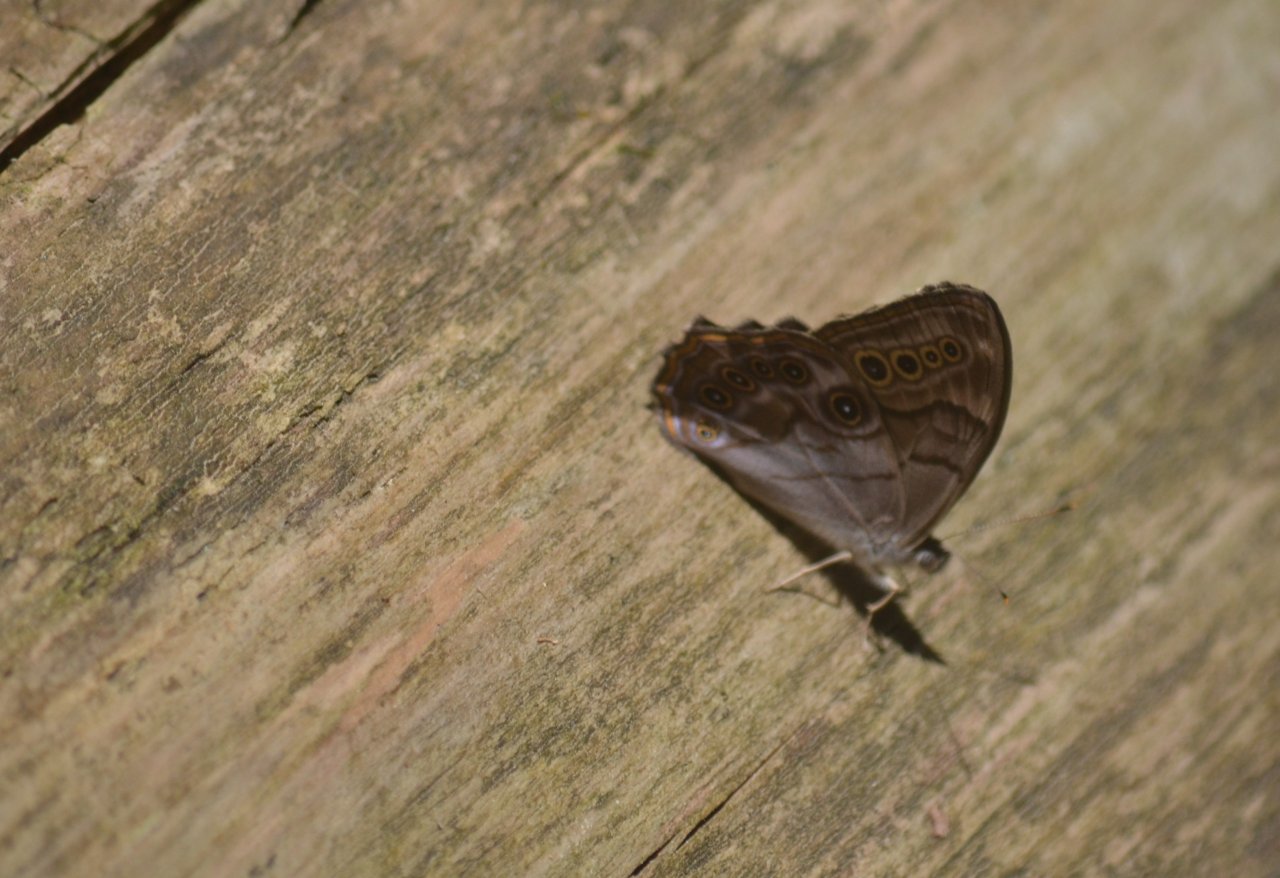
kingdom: Animalia
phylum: Arthropoda
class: Insecta
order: Lepidoptera
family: Nymphalidae
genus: Lethe
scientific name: Lethe anthedon
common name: Northern Pearly-Eye
